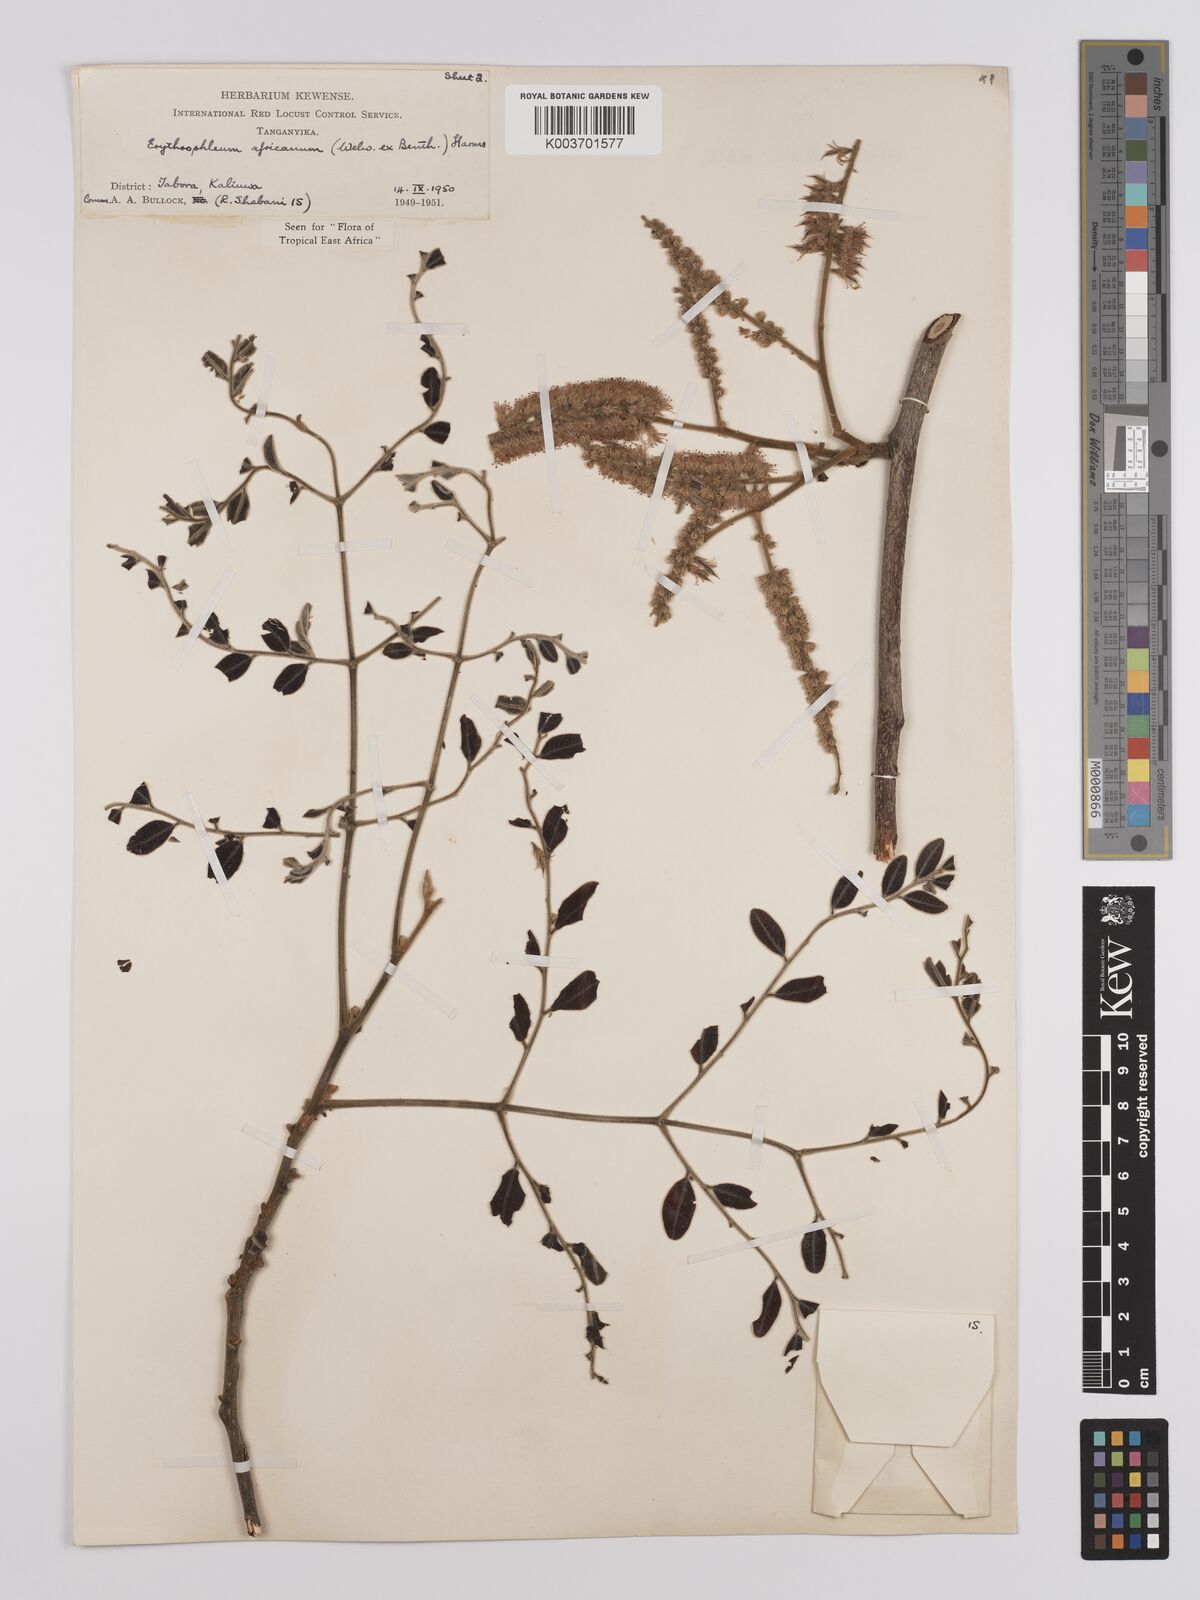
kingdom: Plantae
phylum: Tracheophyta
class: Magnoliopsida
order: Fabales
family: Fabaceae
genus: Erythrophleum
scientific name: Erythrophleum africanum
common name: African blackwood
